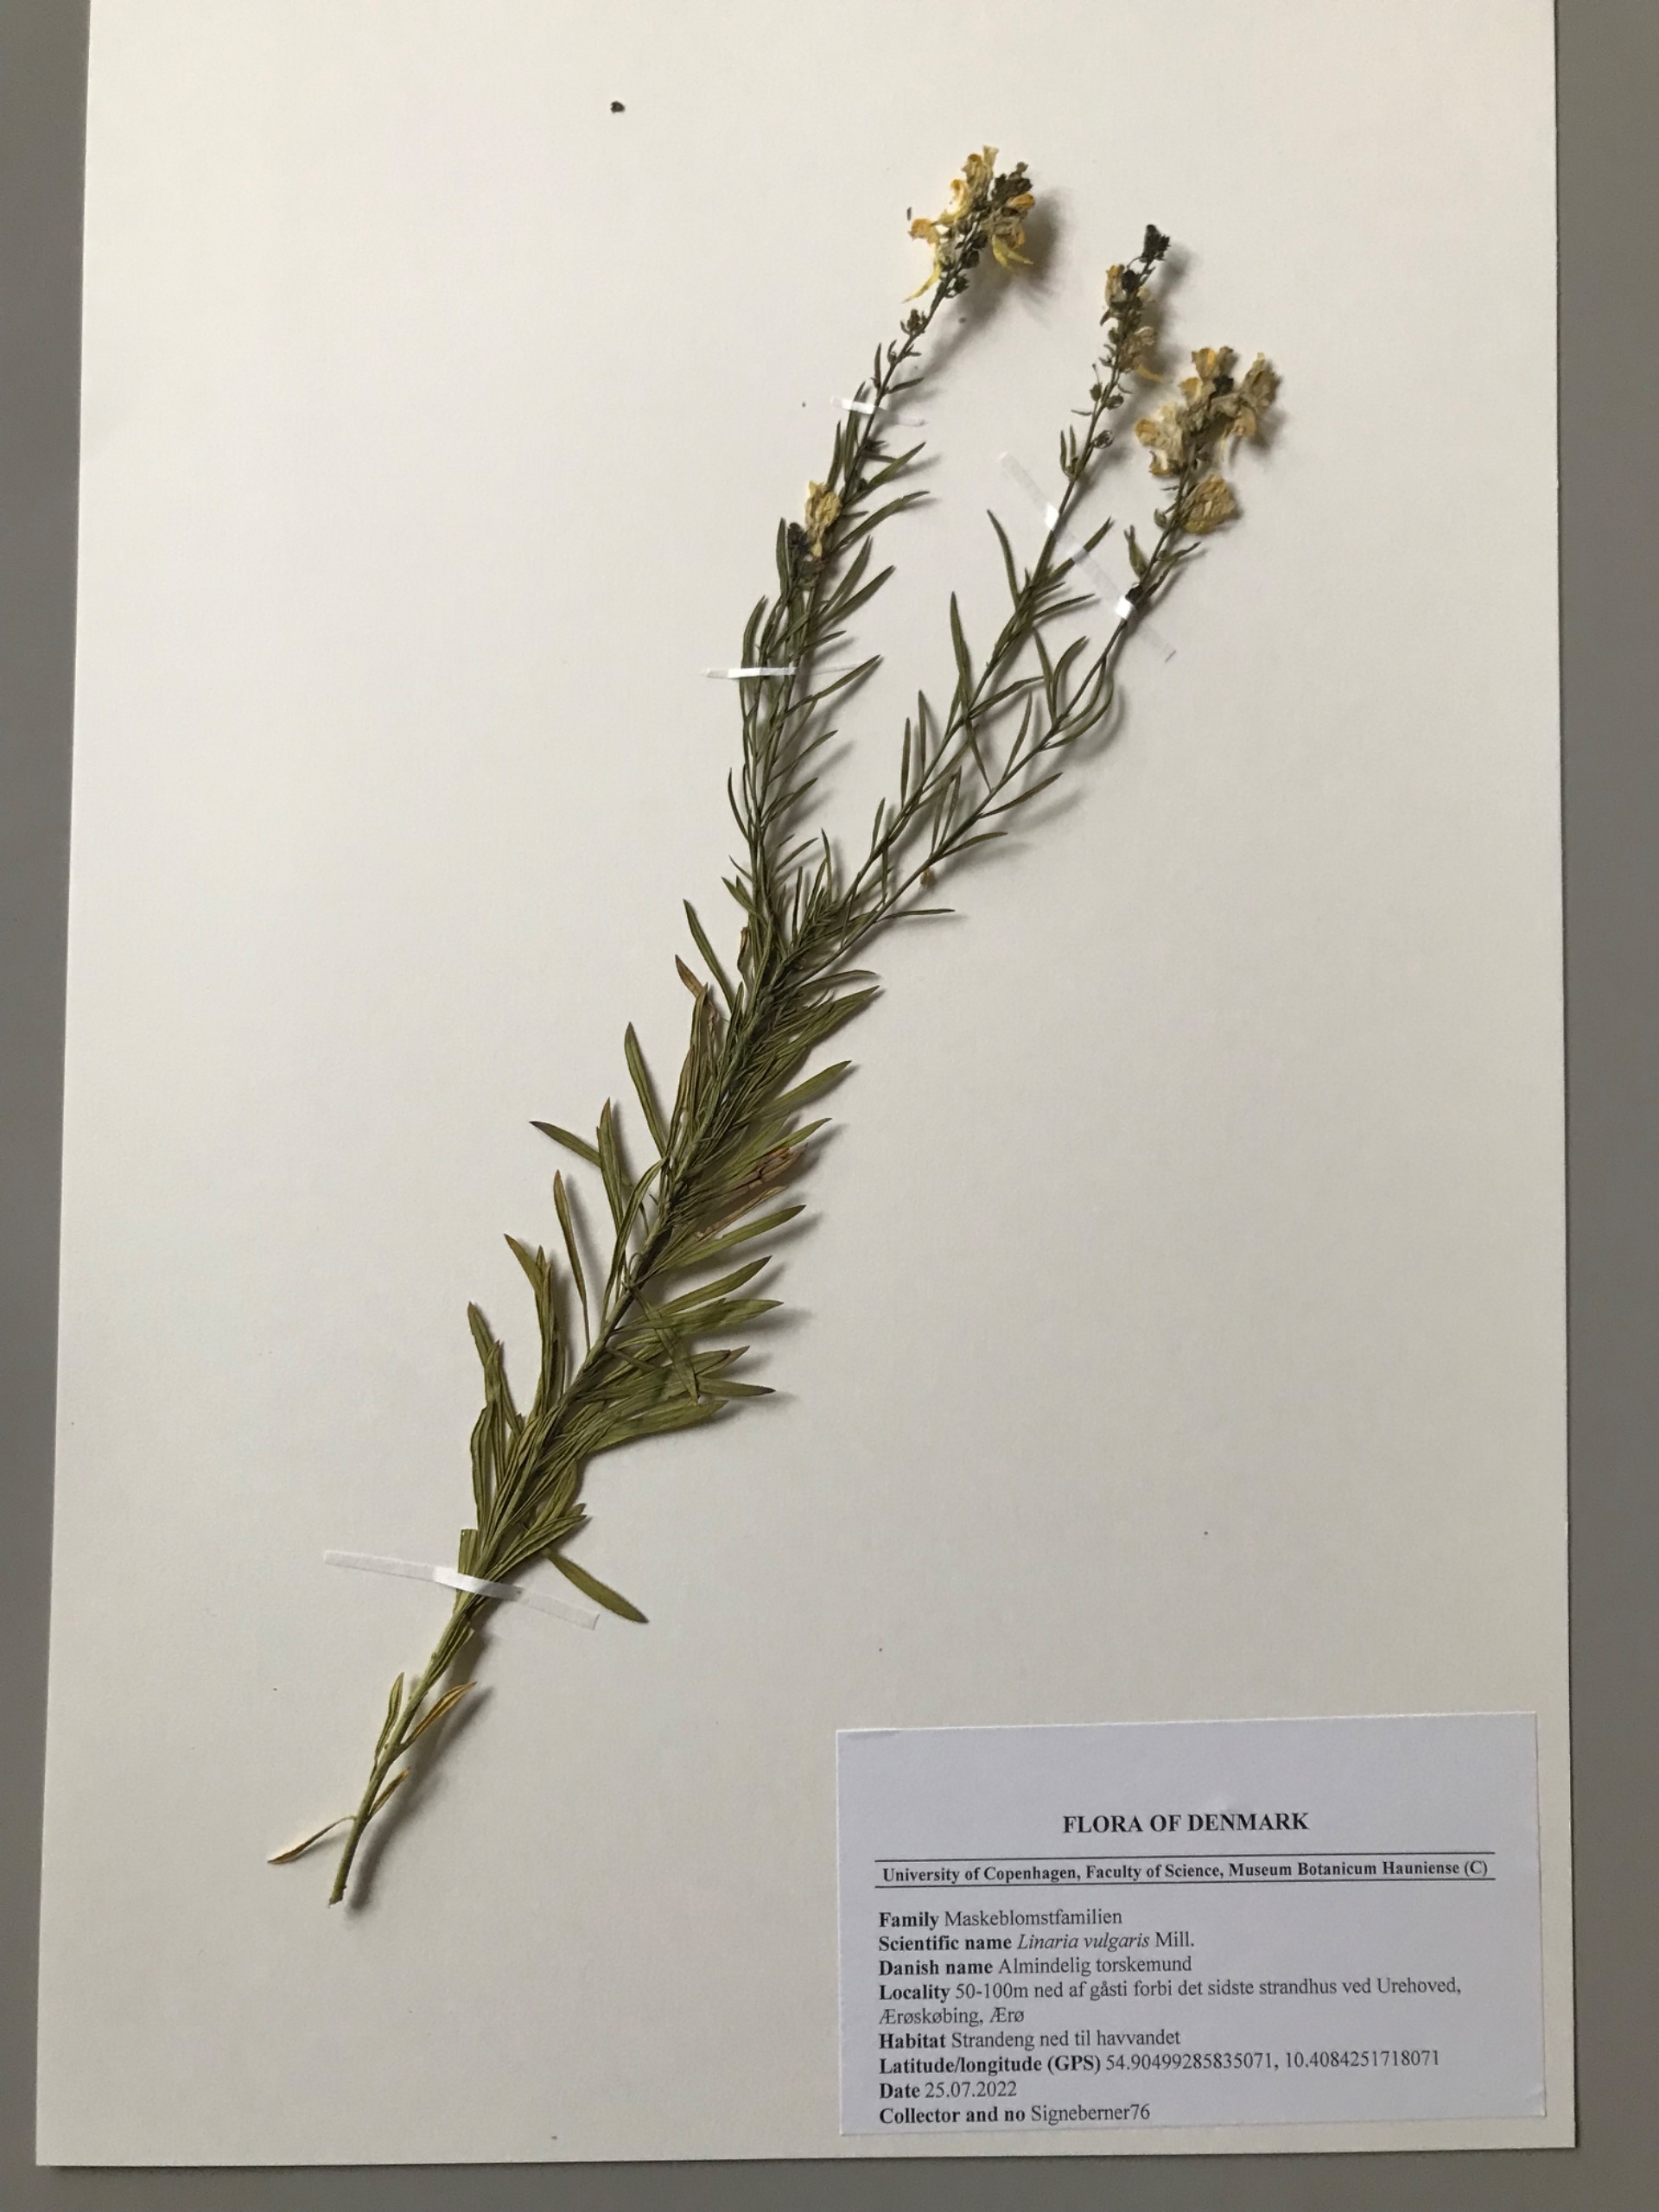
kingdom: Plantae
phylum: Tracheophyta
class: Magnoliopsida
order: Lamiales
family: Plantaginaceae
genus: Linaria
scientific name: Linaria vulgaris
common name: Almindelig torskemund
